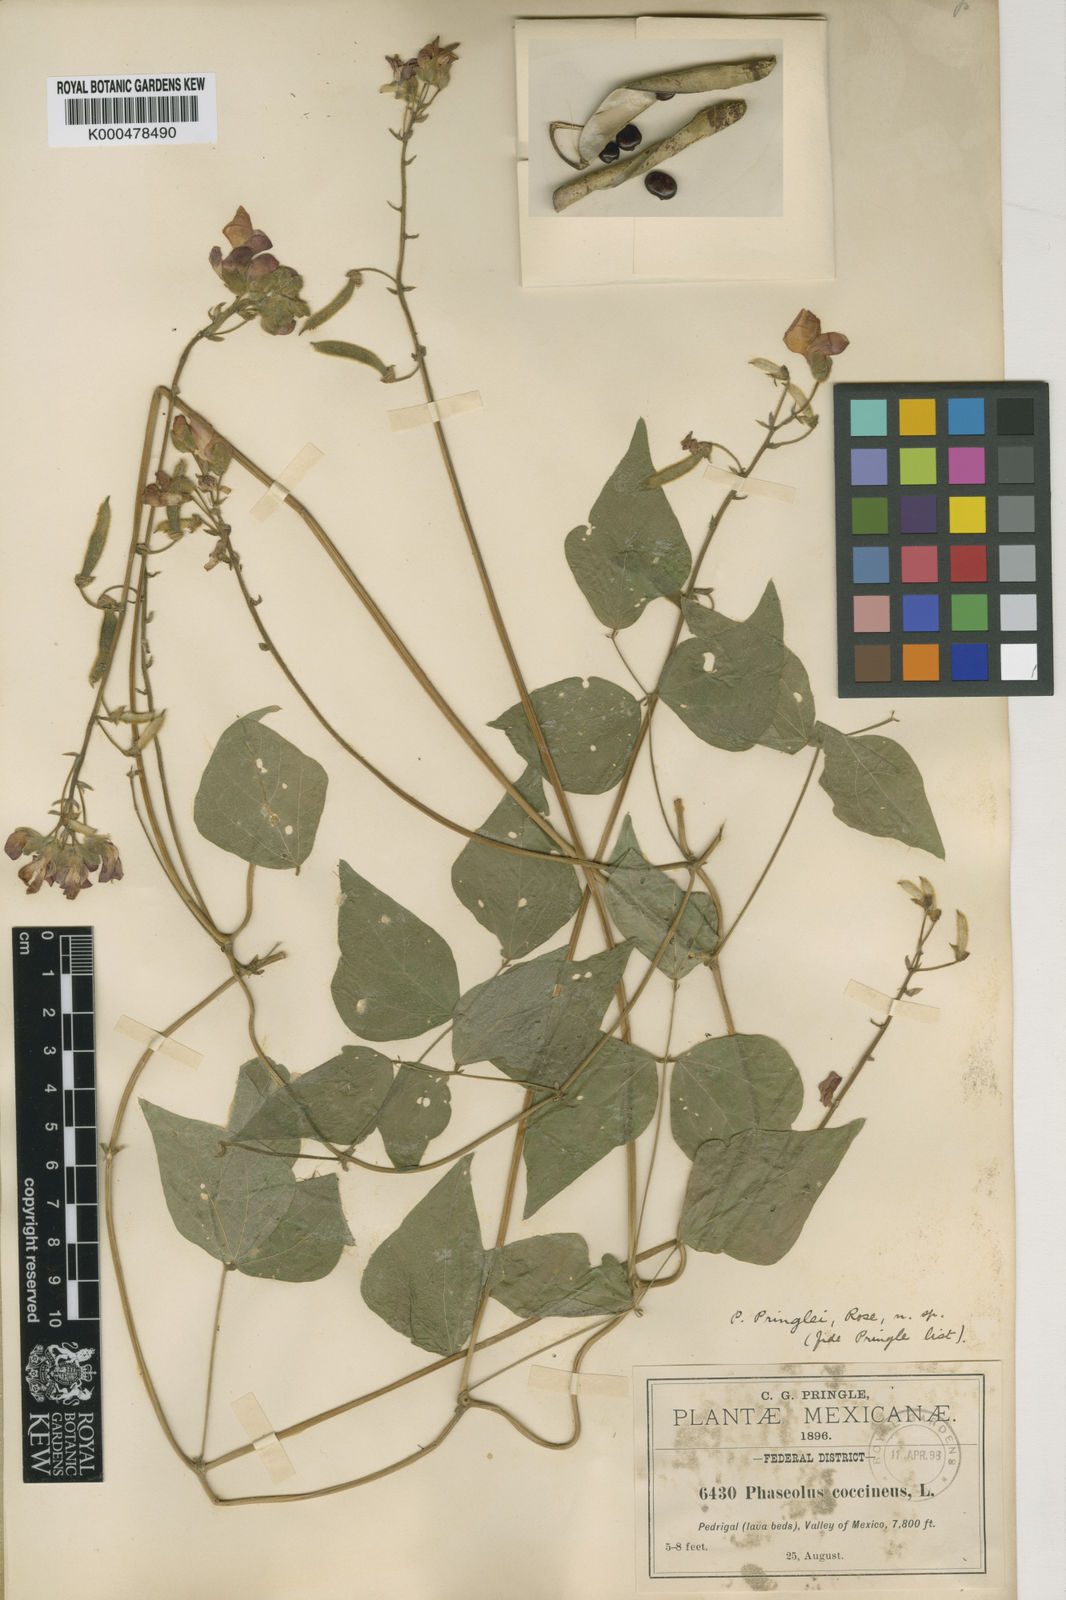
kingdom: Plantae
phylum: Tracheophyta
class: Magnoliopsida
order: Fabales
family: Fabaceae
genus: Phaseolus
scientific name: Phaseolus coccineus
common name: Runner bean
